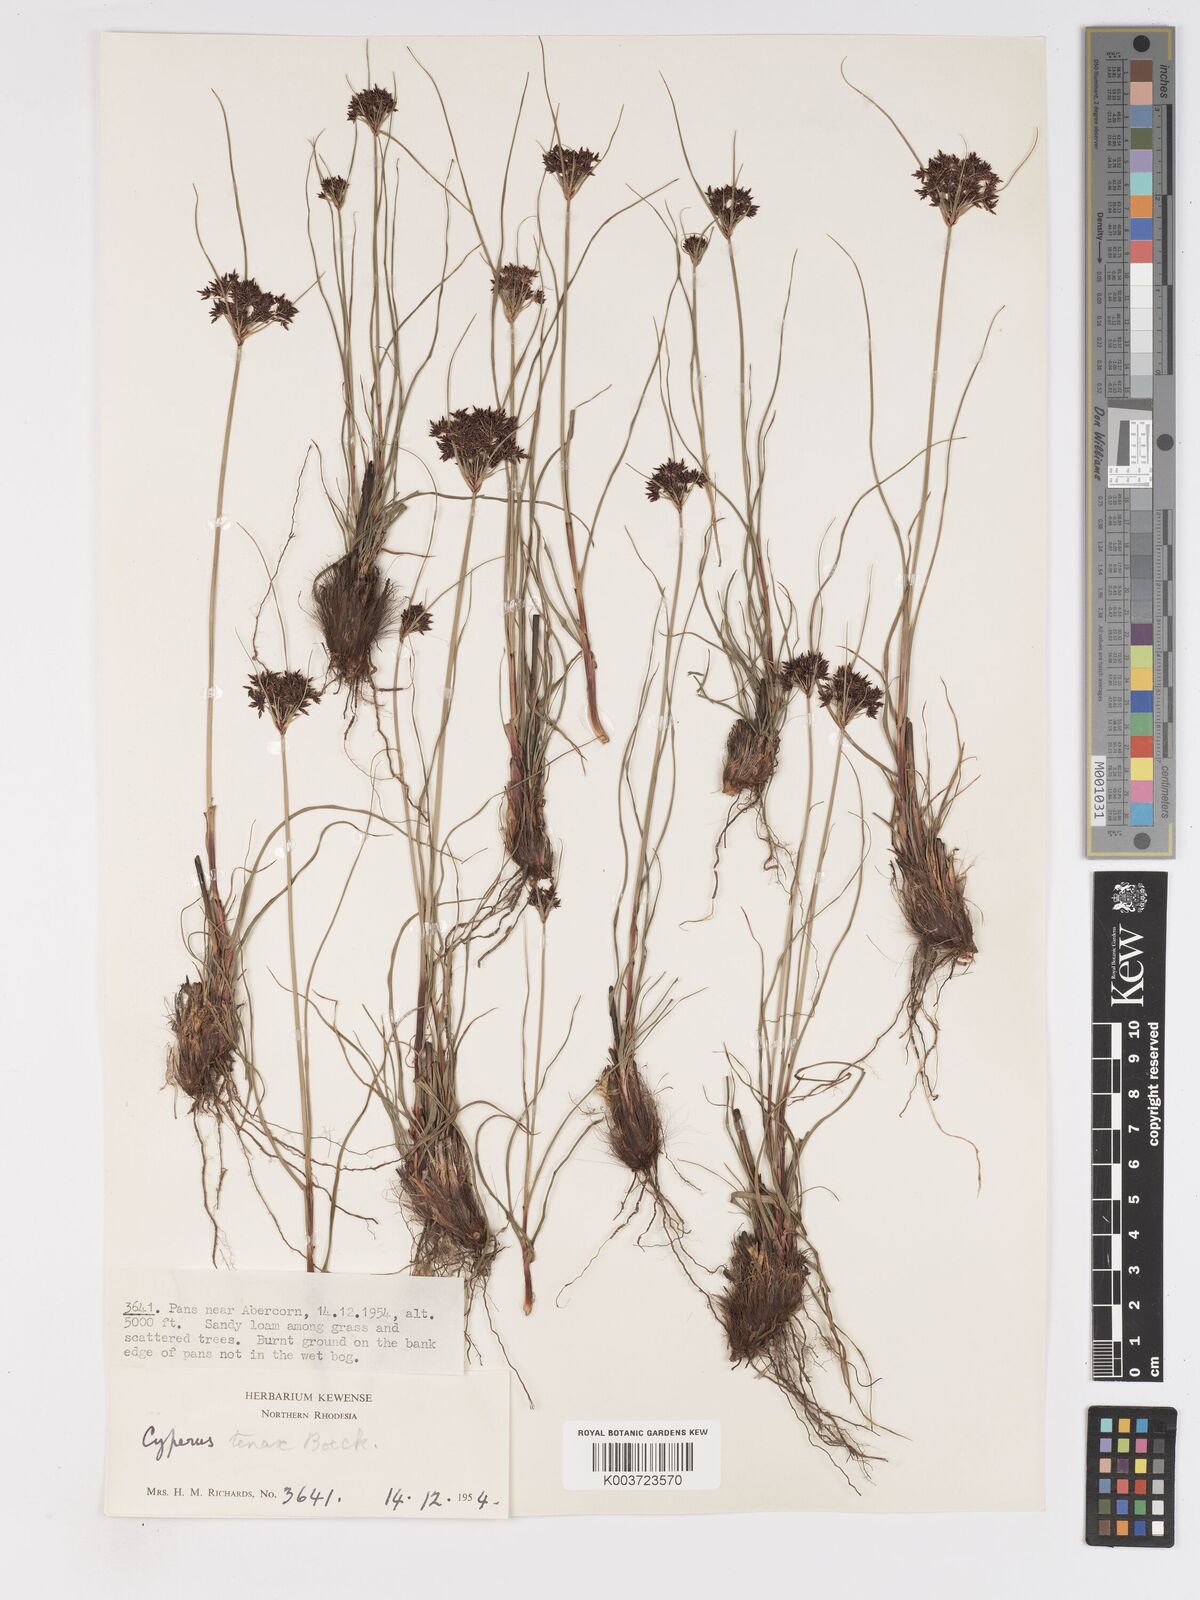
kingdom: Plantae
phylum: Tracheophyta
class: Liliopsida
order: Poales
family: Cyperaceae
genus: Cyperus
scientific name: Cyperus tenax
